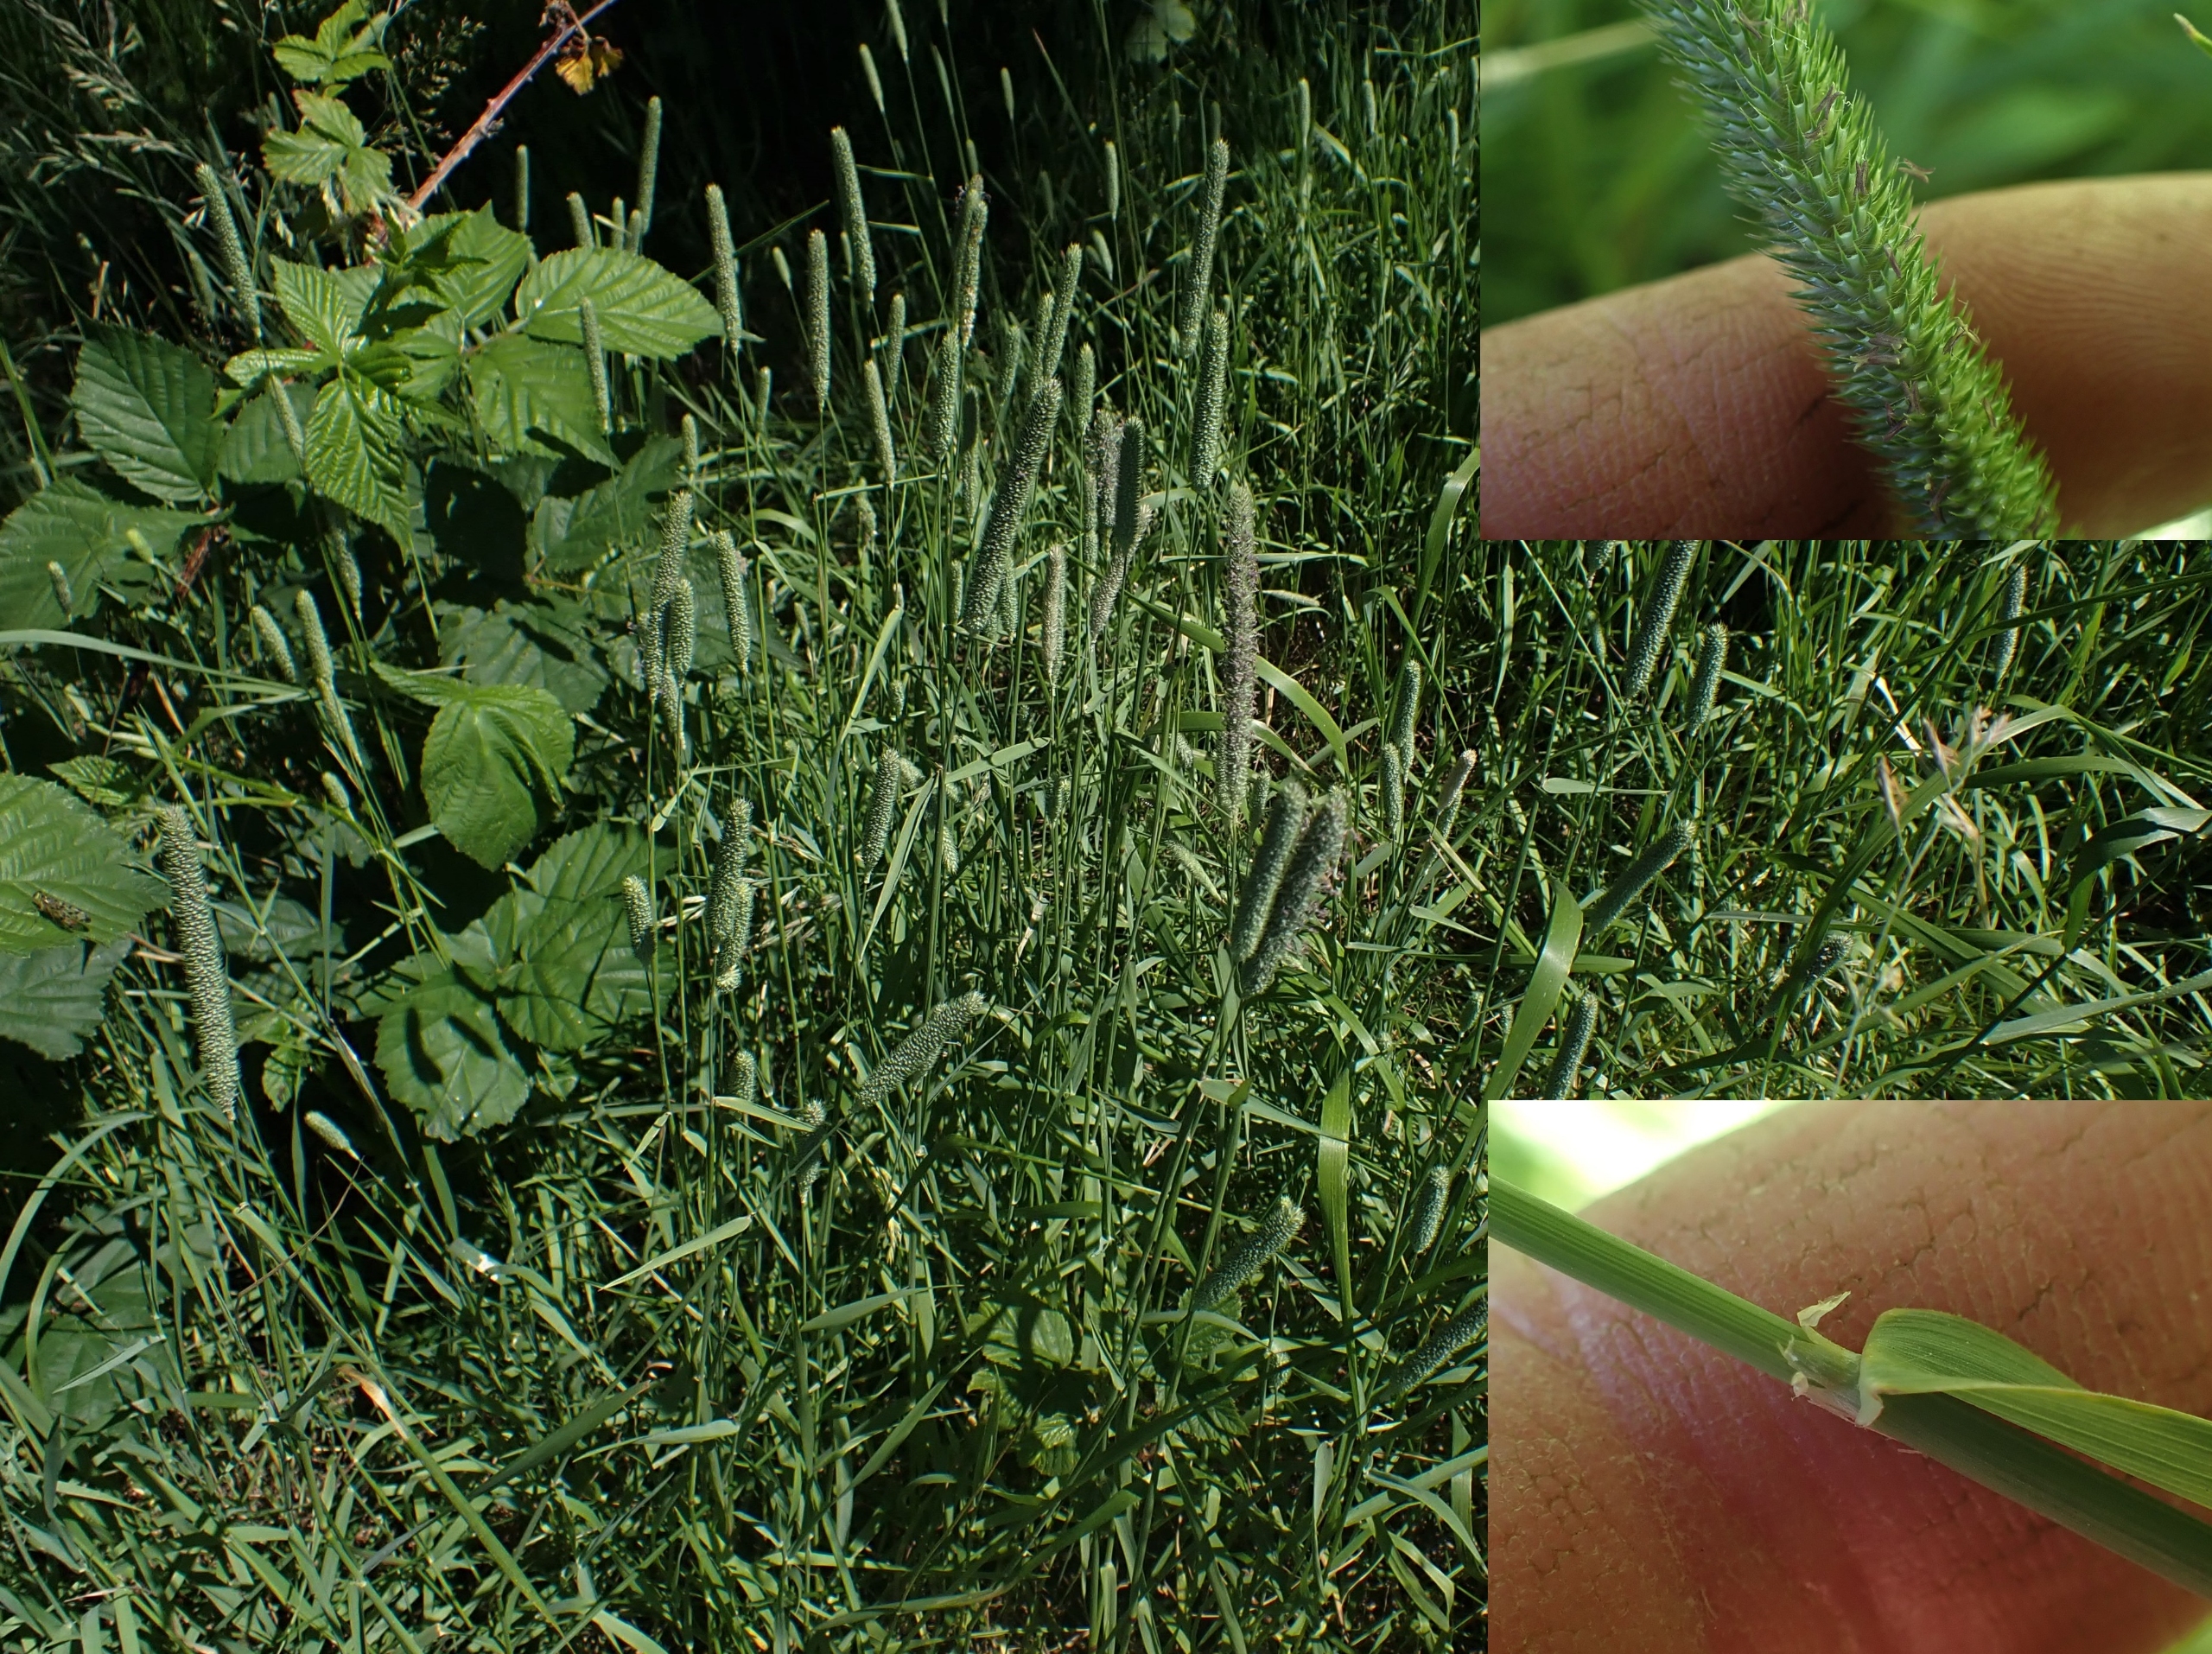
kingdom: Plantae
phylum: Tracheophyta
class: Liliopsida
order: Poales
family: Poaceae
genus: Phleum
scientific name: Phleum pratense
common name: Eng-rottehale
